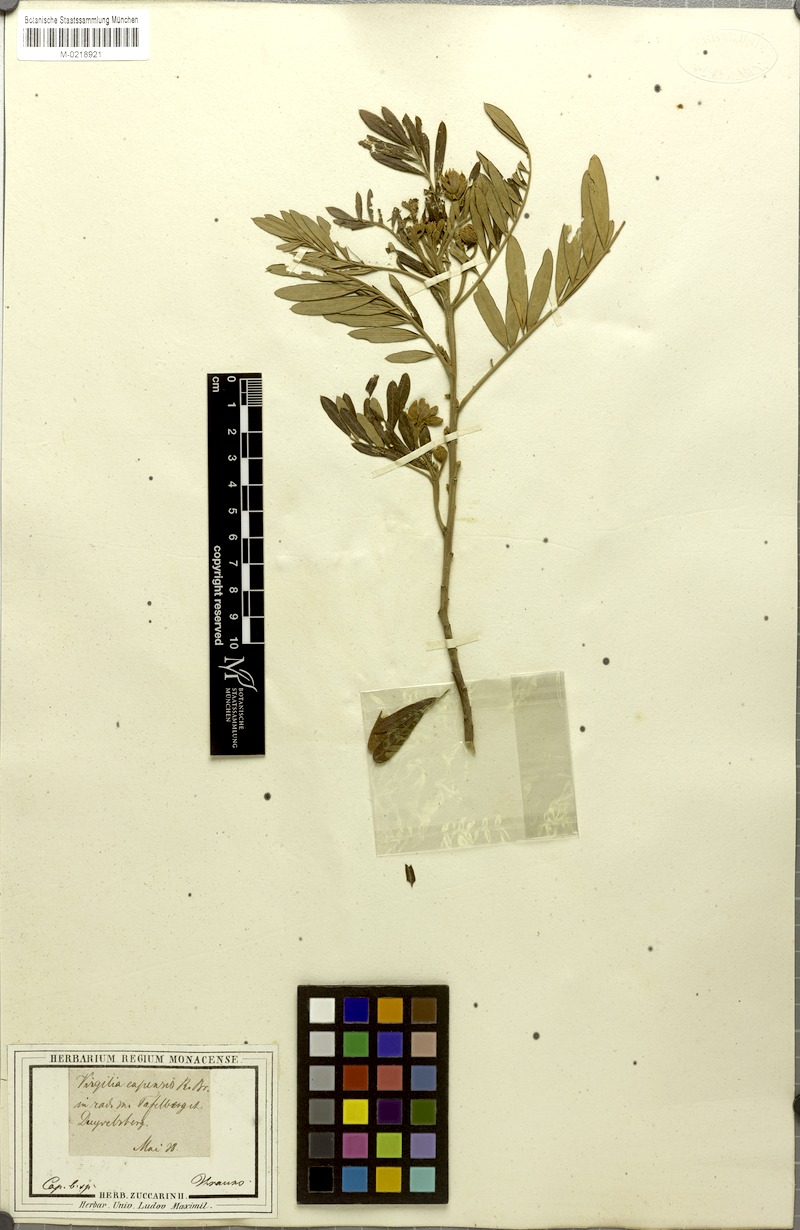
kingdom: Plantae
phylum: Tracheophyta
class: Magnoliopsida
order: Fabales
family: Fabaceae
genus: Virgilia
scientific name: Virgilia oroboides
